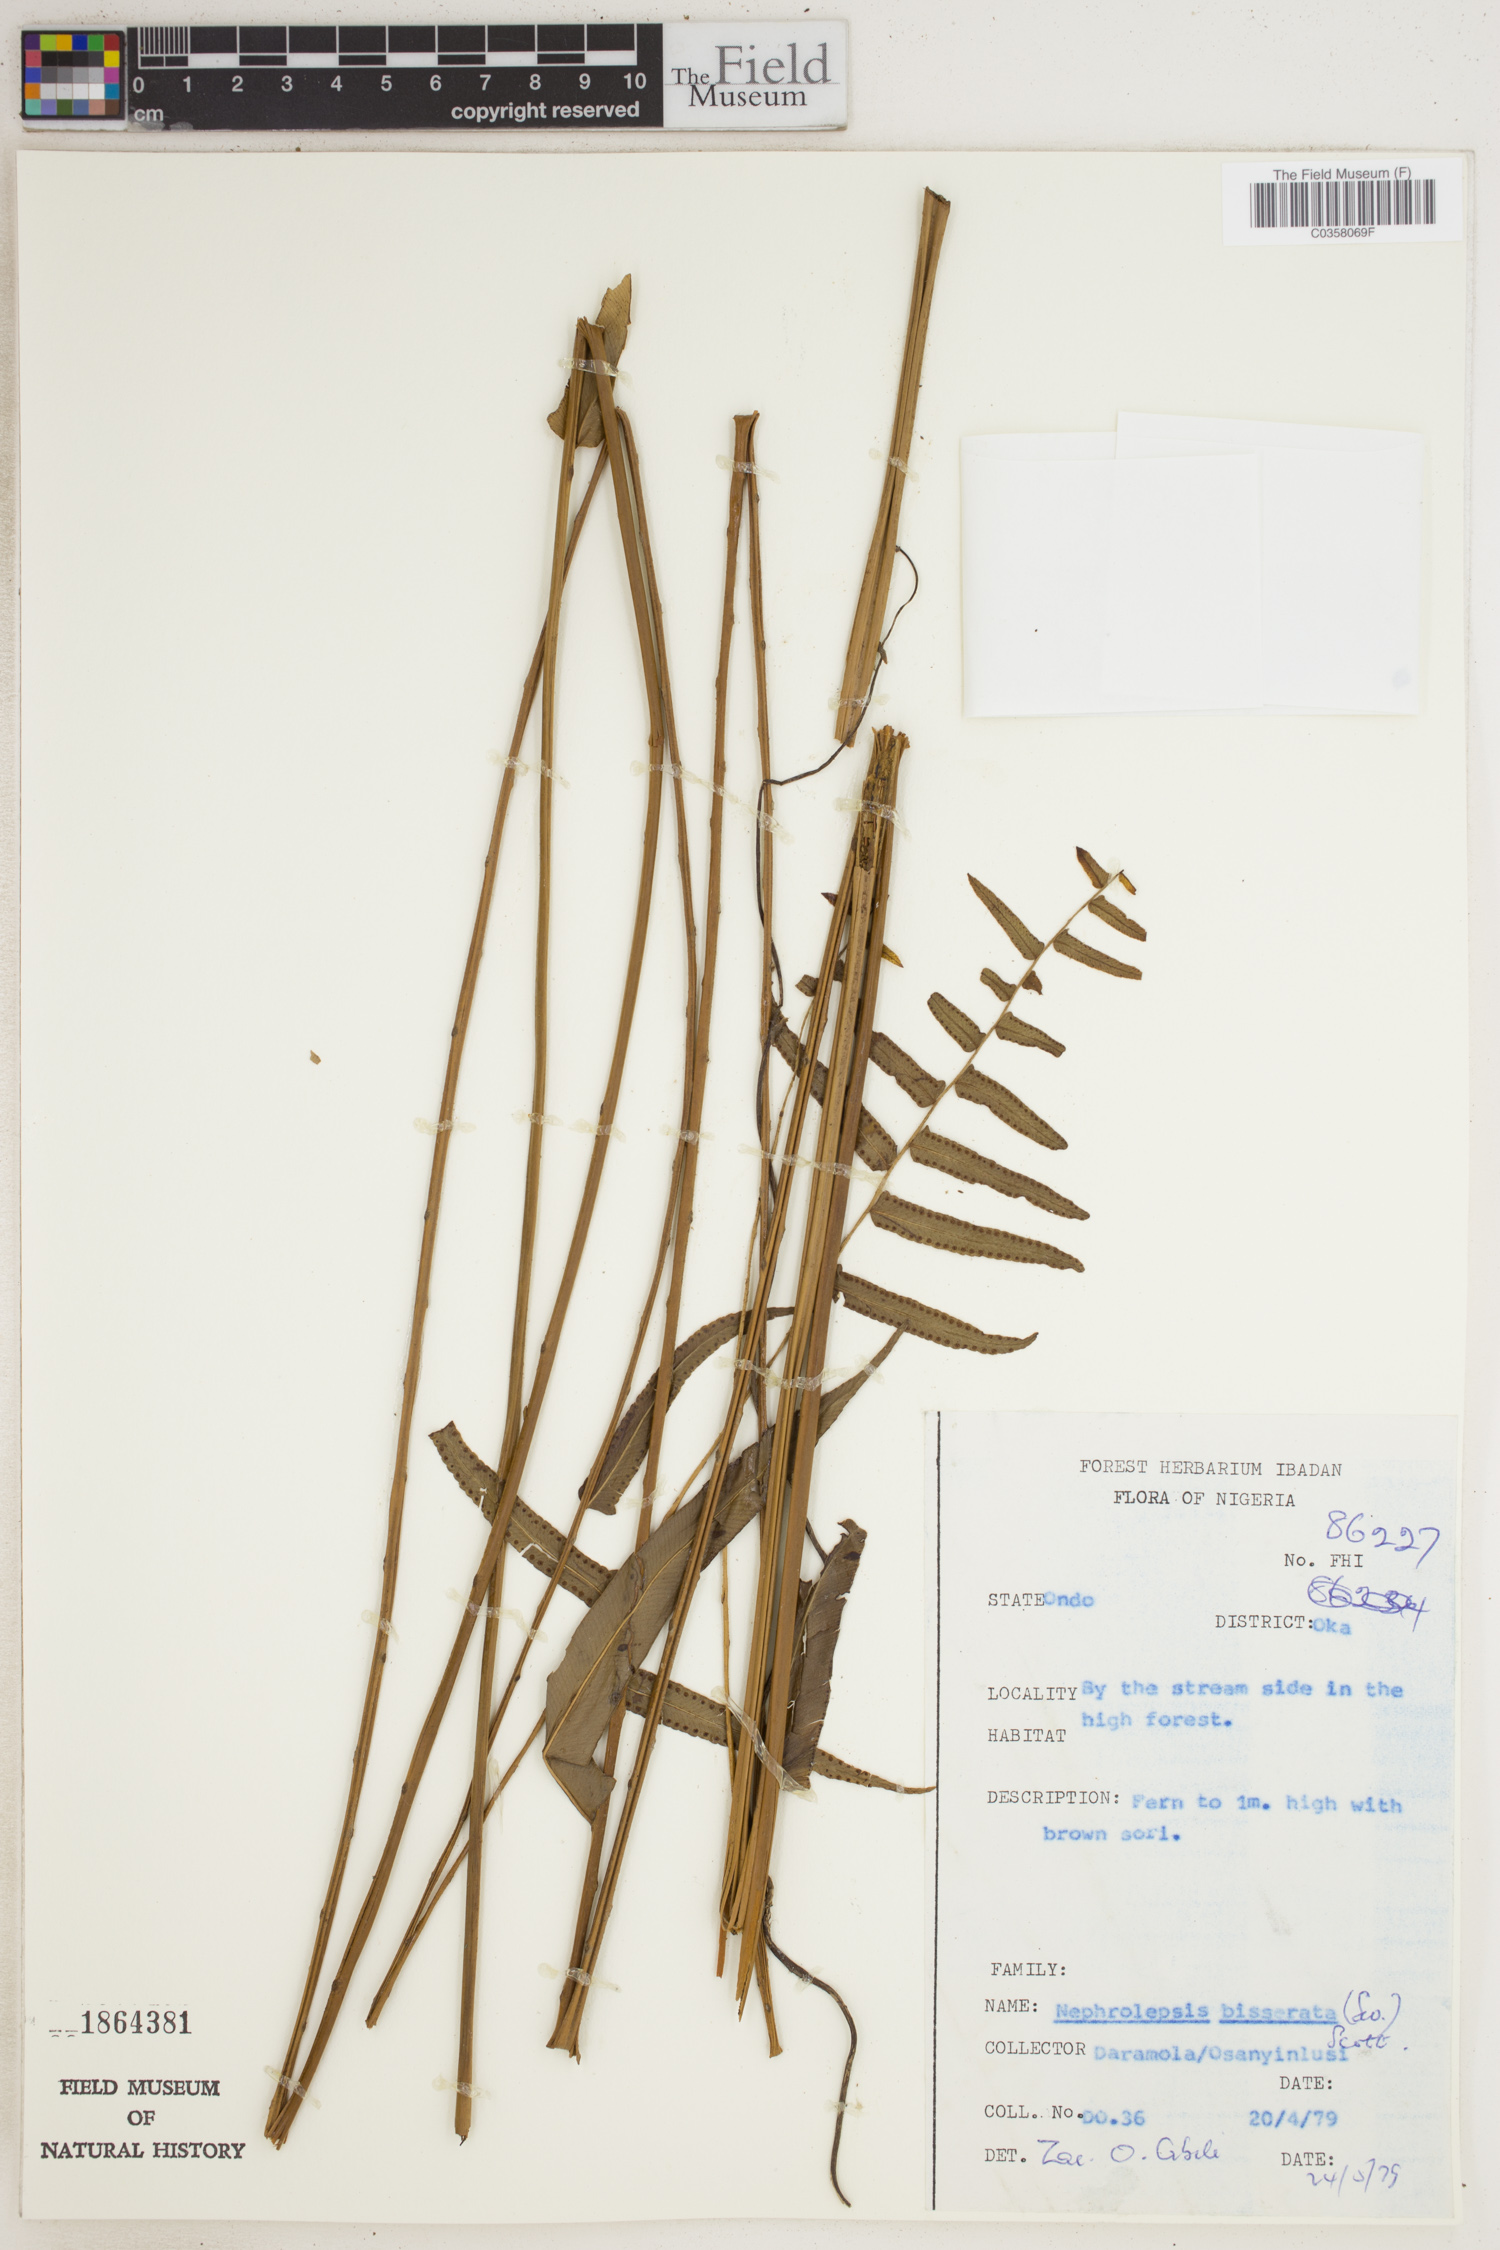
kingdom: Plantae
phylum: Tracheophyta
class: Polypodiopsida
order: Polypodiales
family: Nephrolepidaceae
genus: Nephrolepis
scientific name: Nephrolepis biserrata
